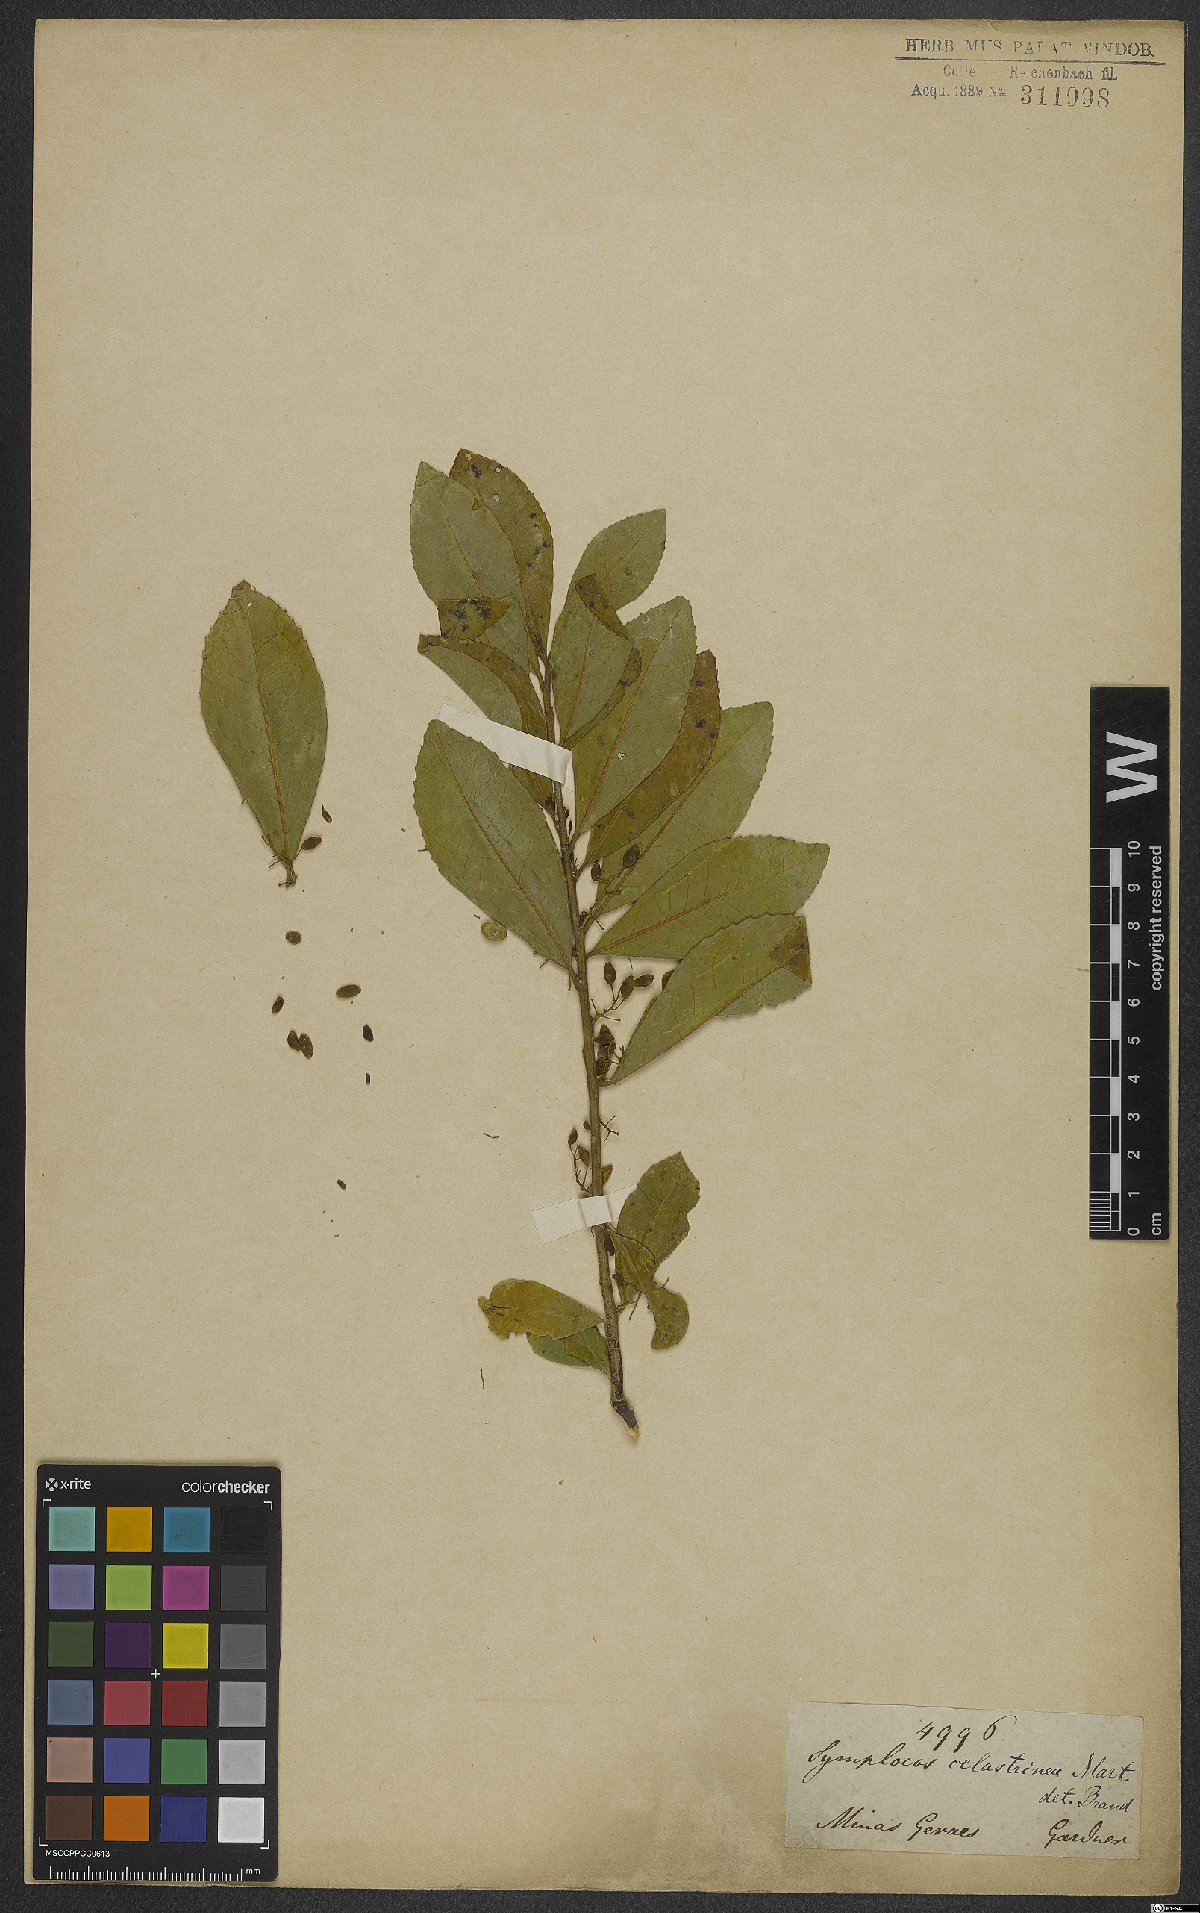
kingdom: Plantae
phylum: Tracheophyta
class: Magnoliopsida
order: Ericales
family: Symplocaceae
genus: Symplocos
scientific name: Symplocos celastrinea
